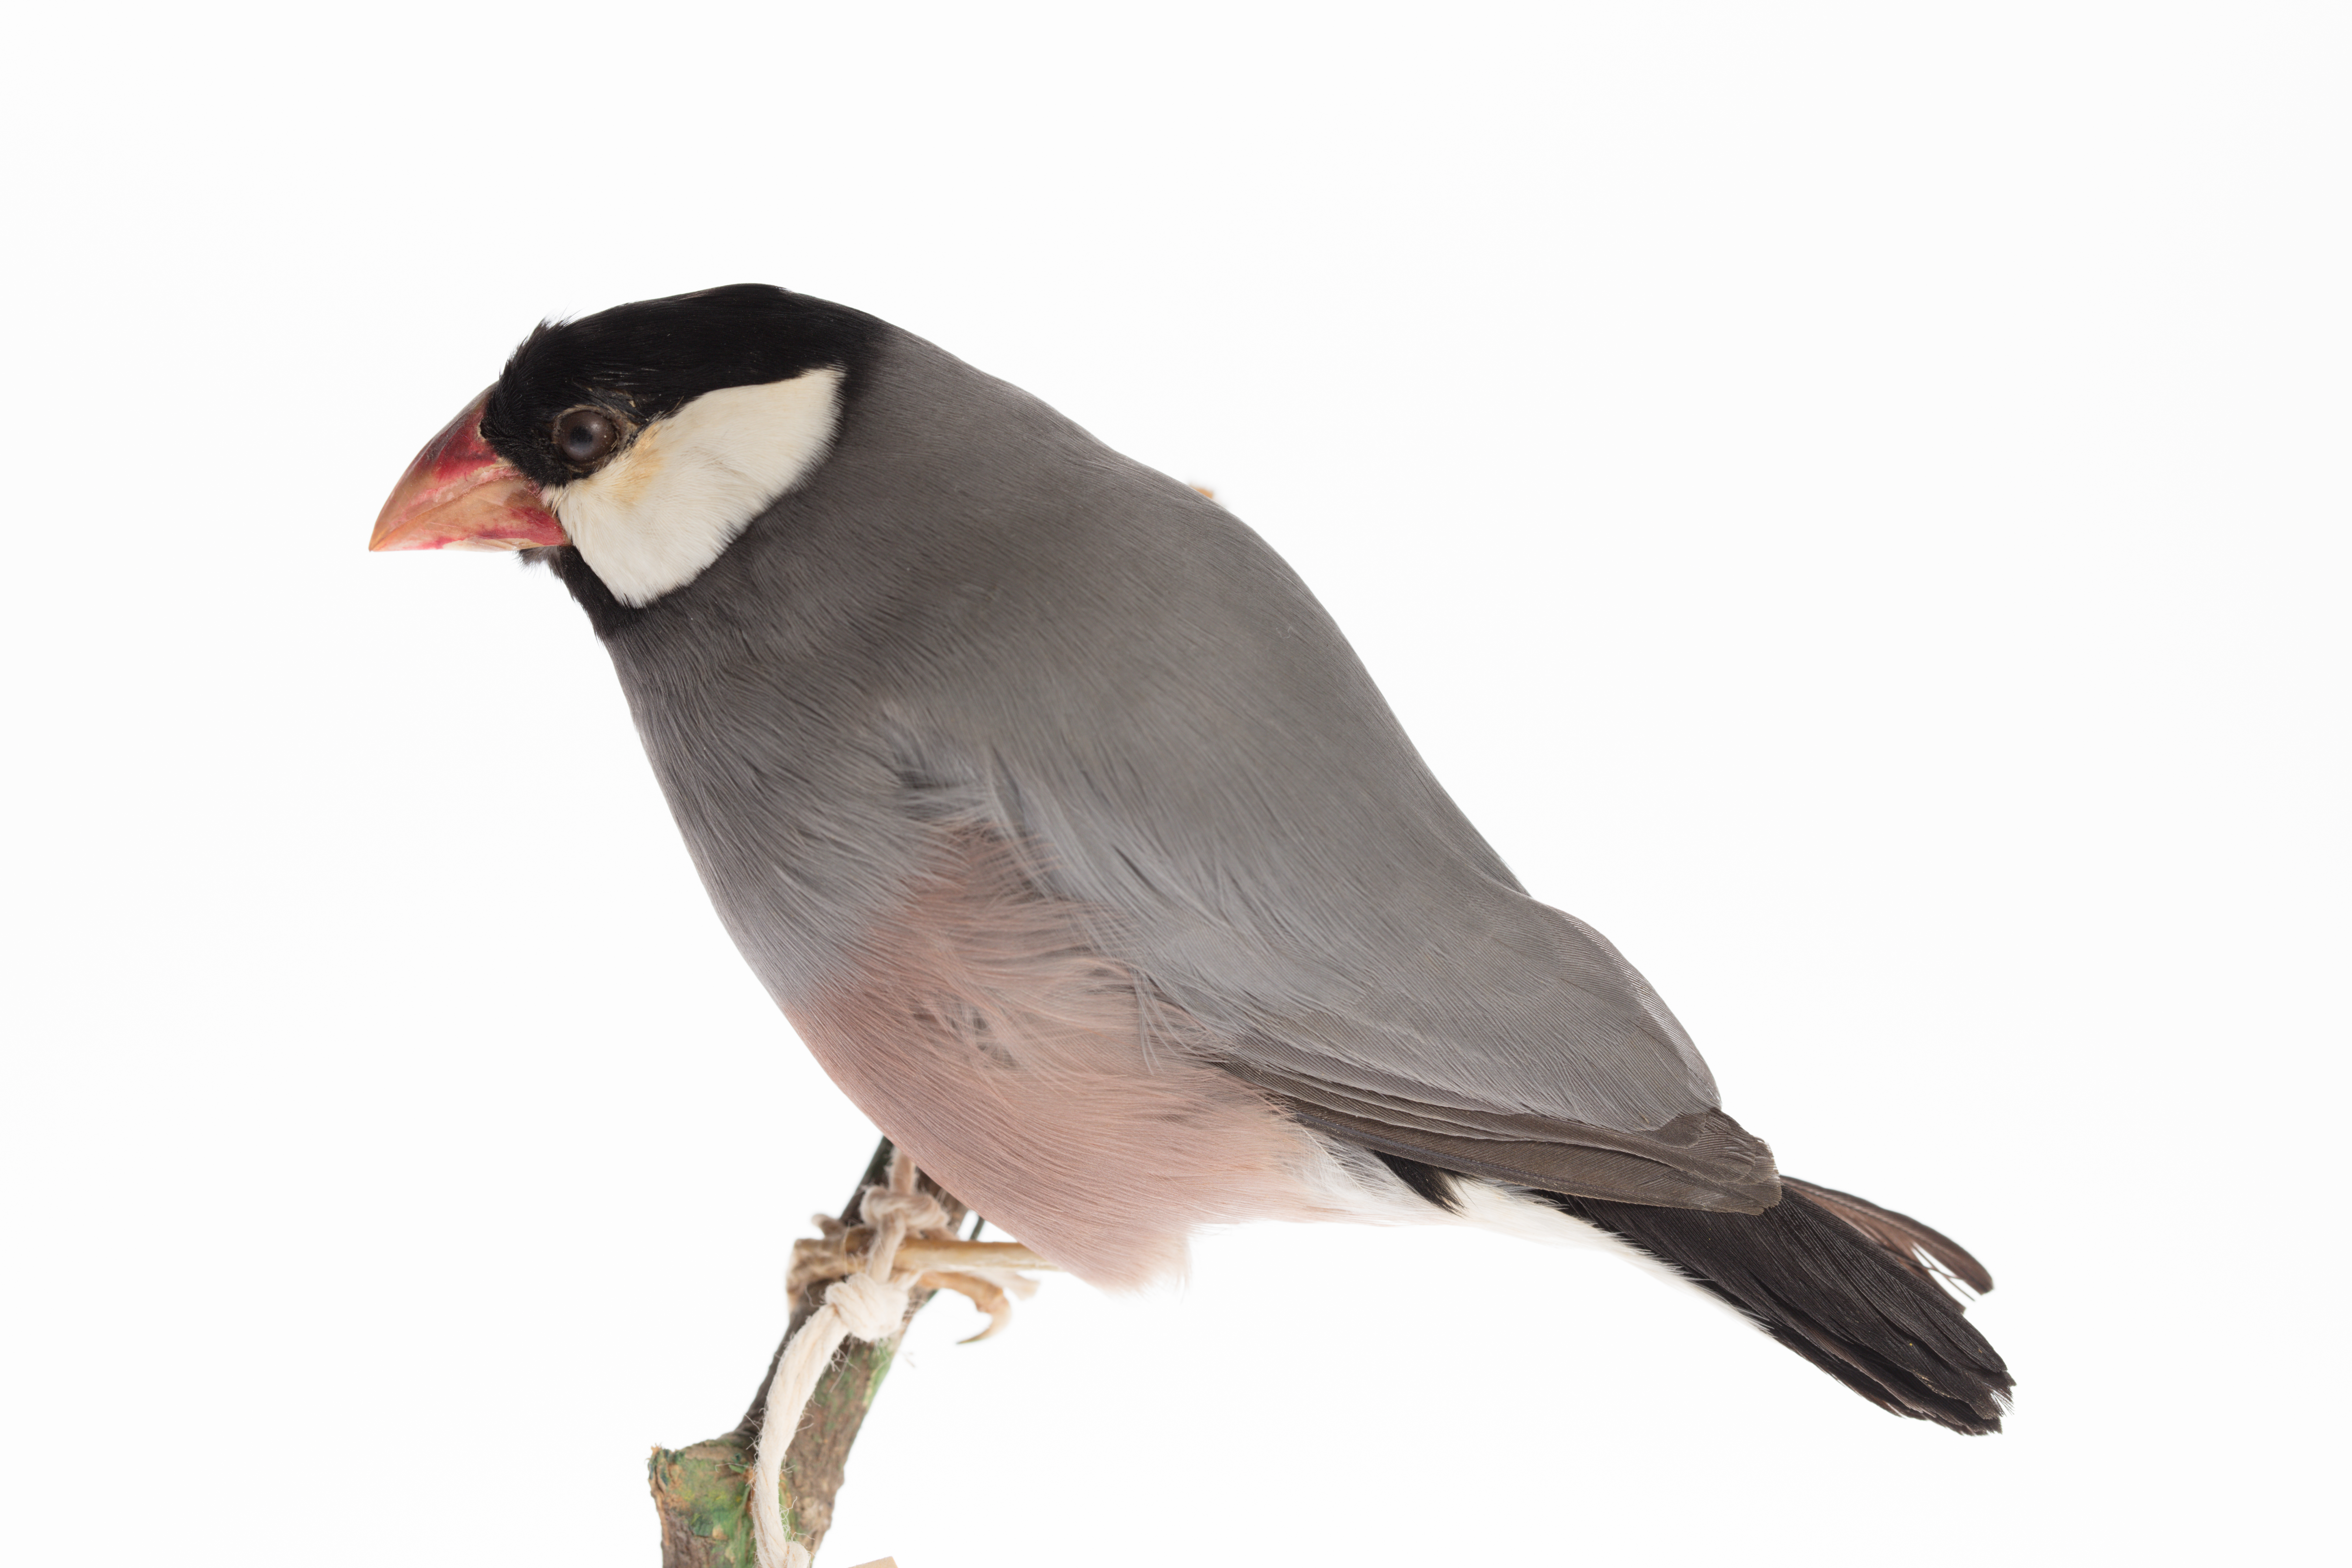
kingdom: Animalia
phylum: Chordata
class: Aves
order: Passeriformes
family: Estrildidae
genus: Lonchura
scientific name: Lonchura oryzivora
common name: Java sparrow
